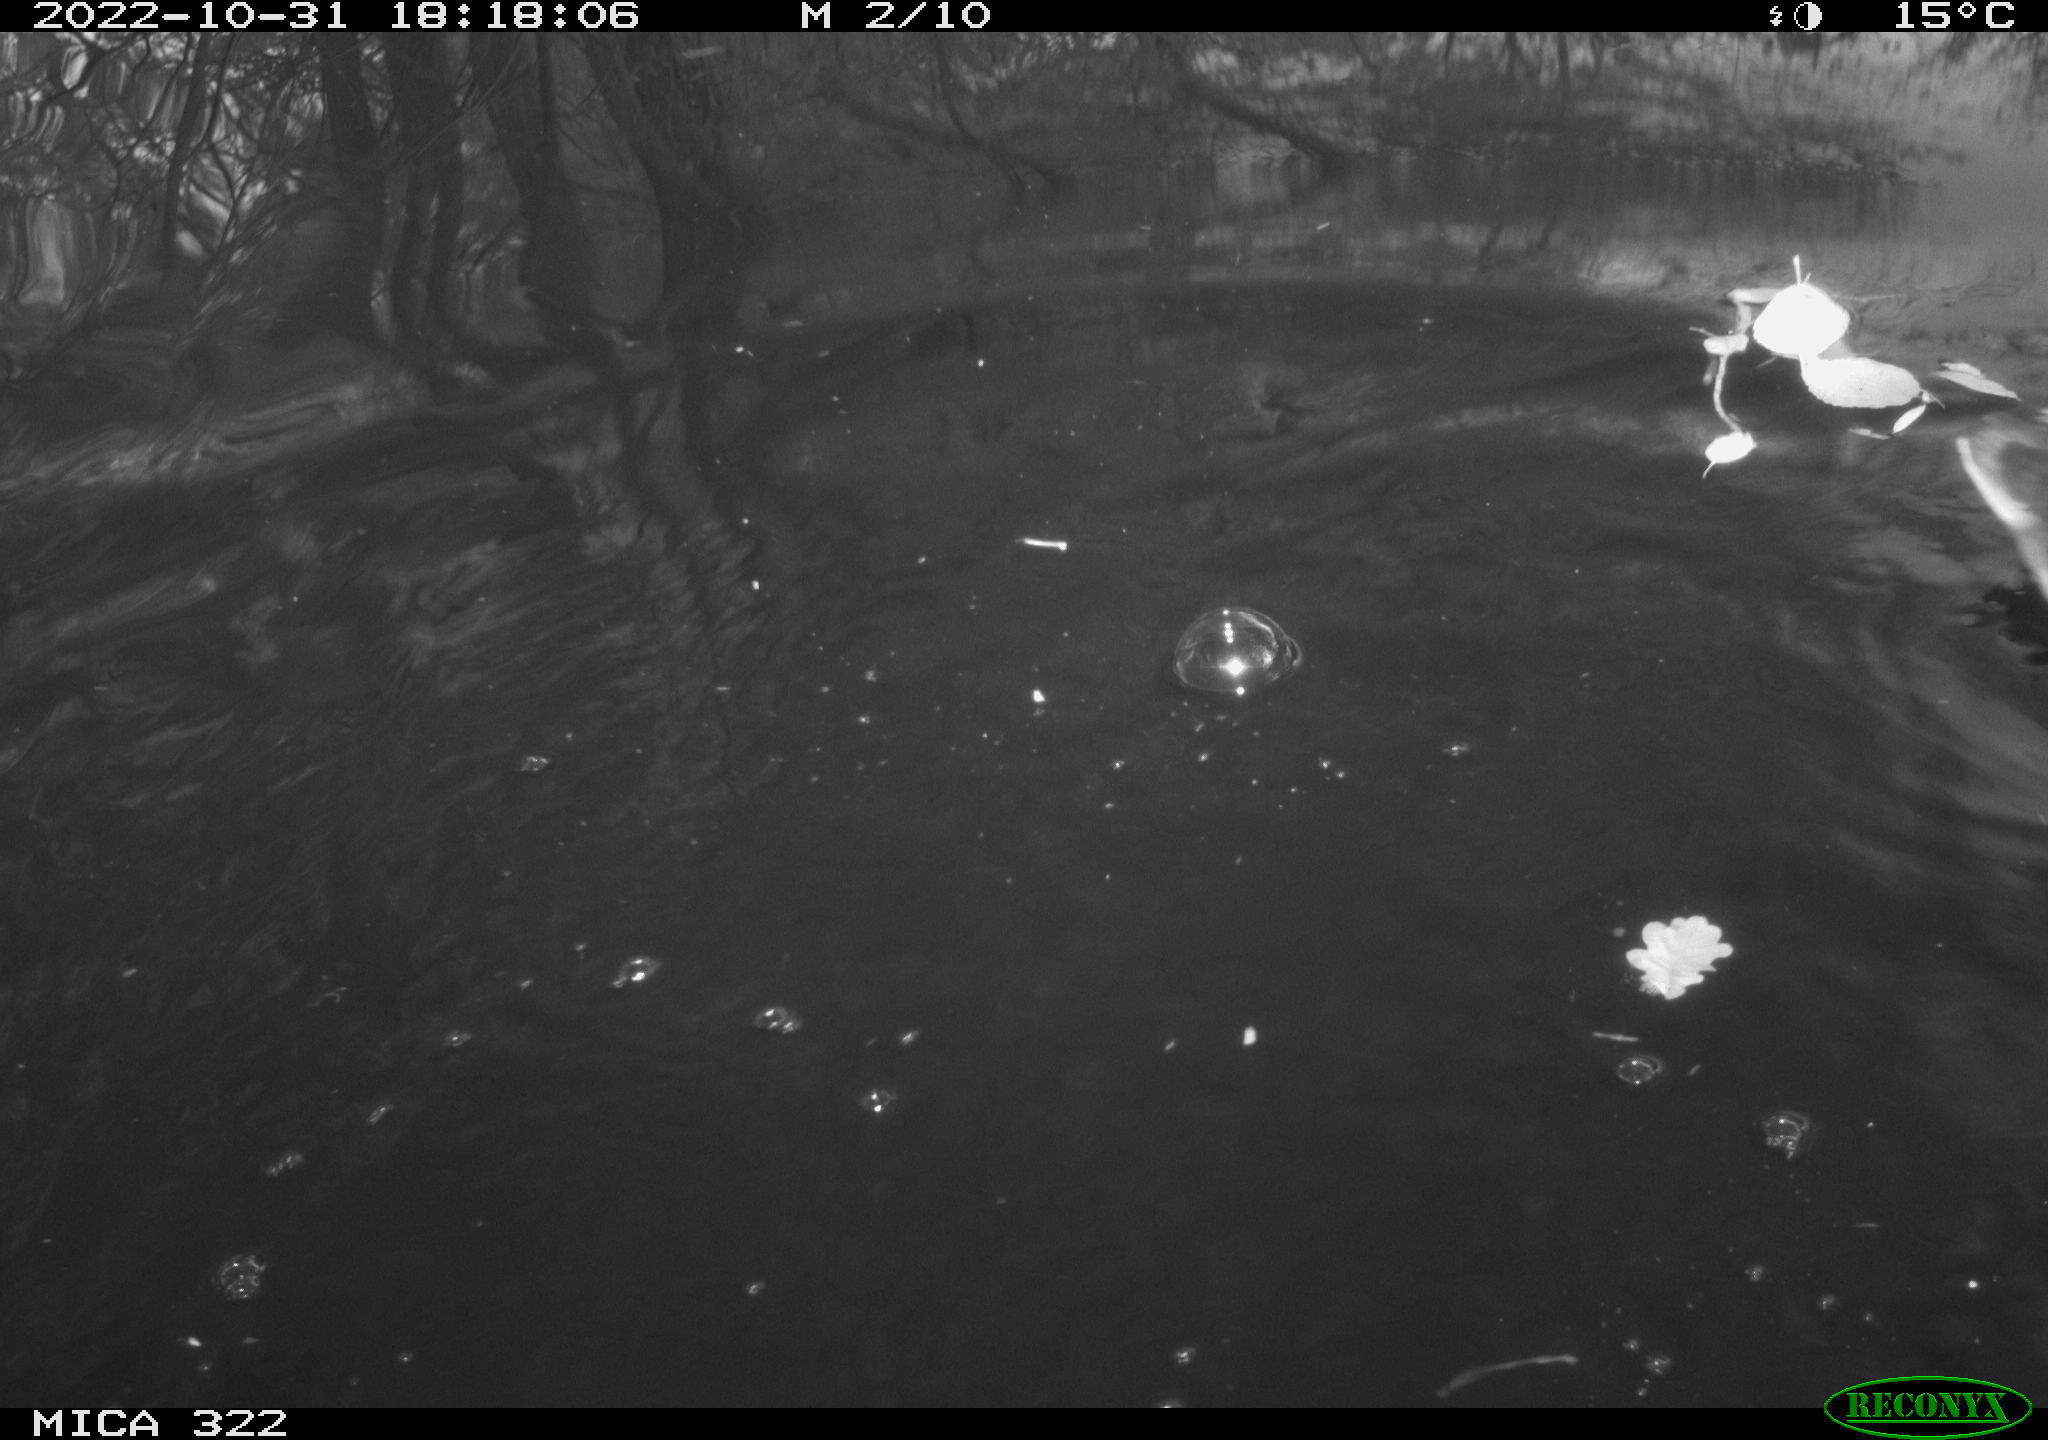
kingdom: Animalia
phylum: Chordata
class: Aves
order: Gruiformes
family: Rallidae
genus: Gallinula
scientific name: Gallinula chloropus
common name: Common moorhen
